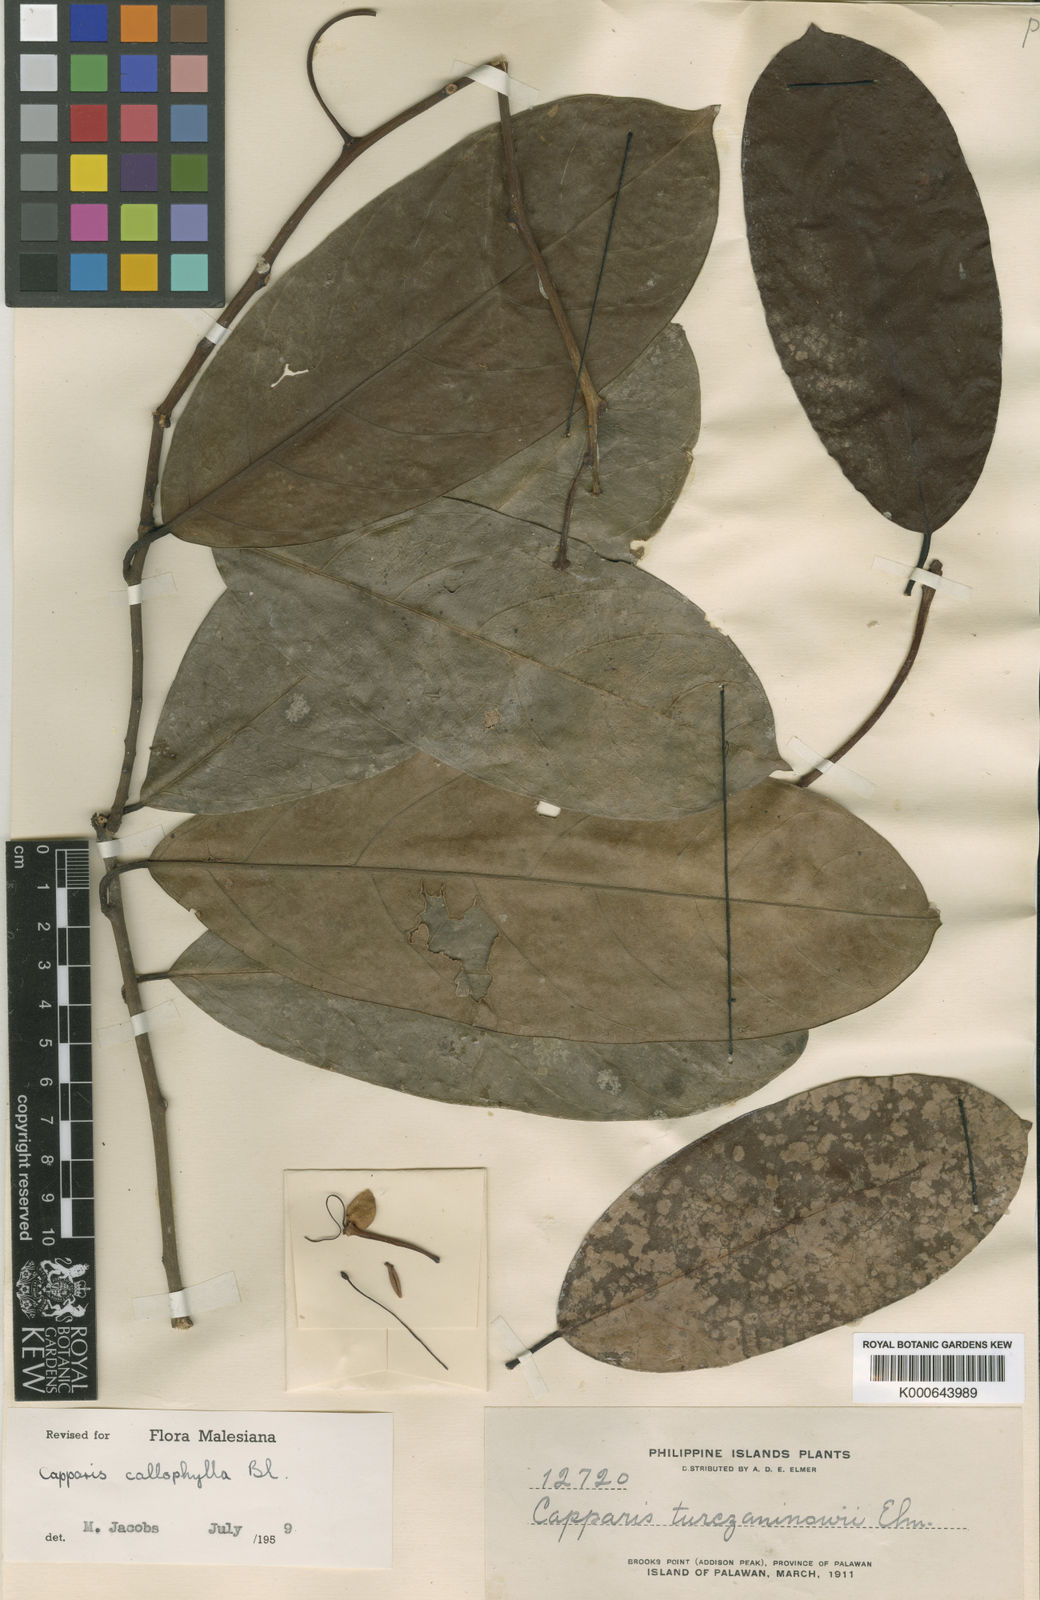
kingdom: Plantae
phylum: Tracheophyta
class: Magnoliopsida
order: Brassicales
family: Capparaceae
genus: Capparis
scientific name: Capparis callophylla
